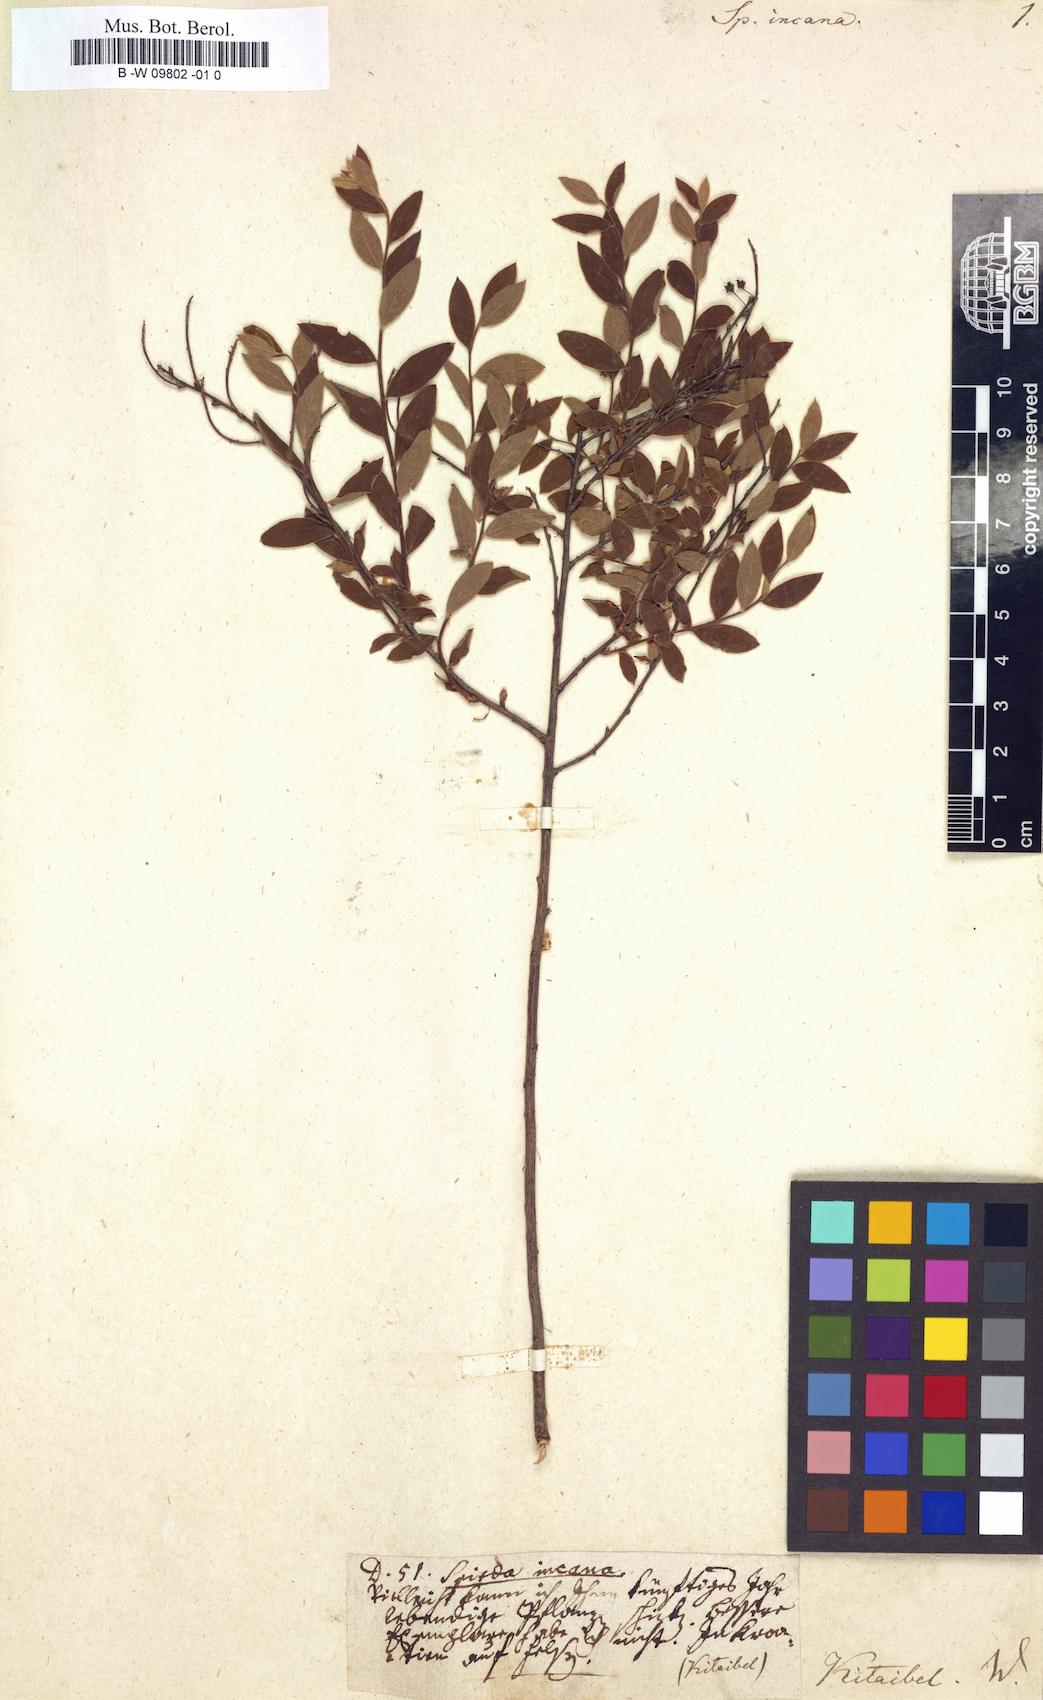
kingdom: Plantae
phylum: Tracheophyta
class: Magnoliopsida
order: Rosales
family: Rosaceae
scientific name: Rosaceae
